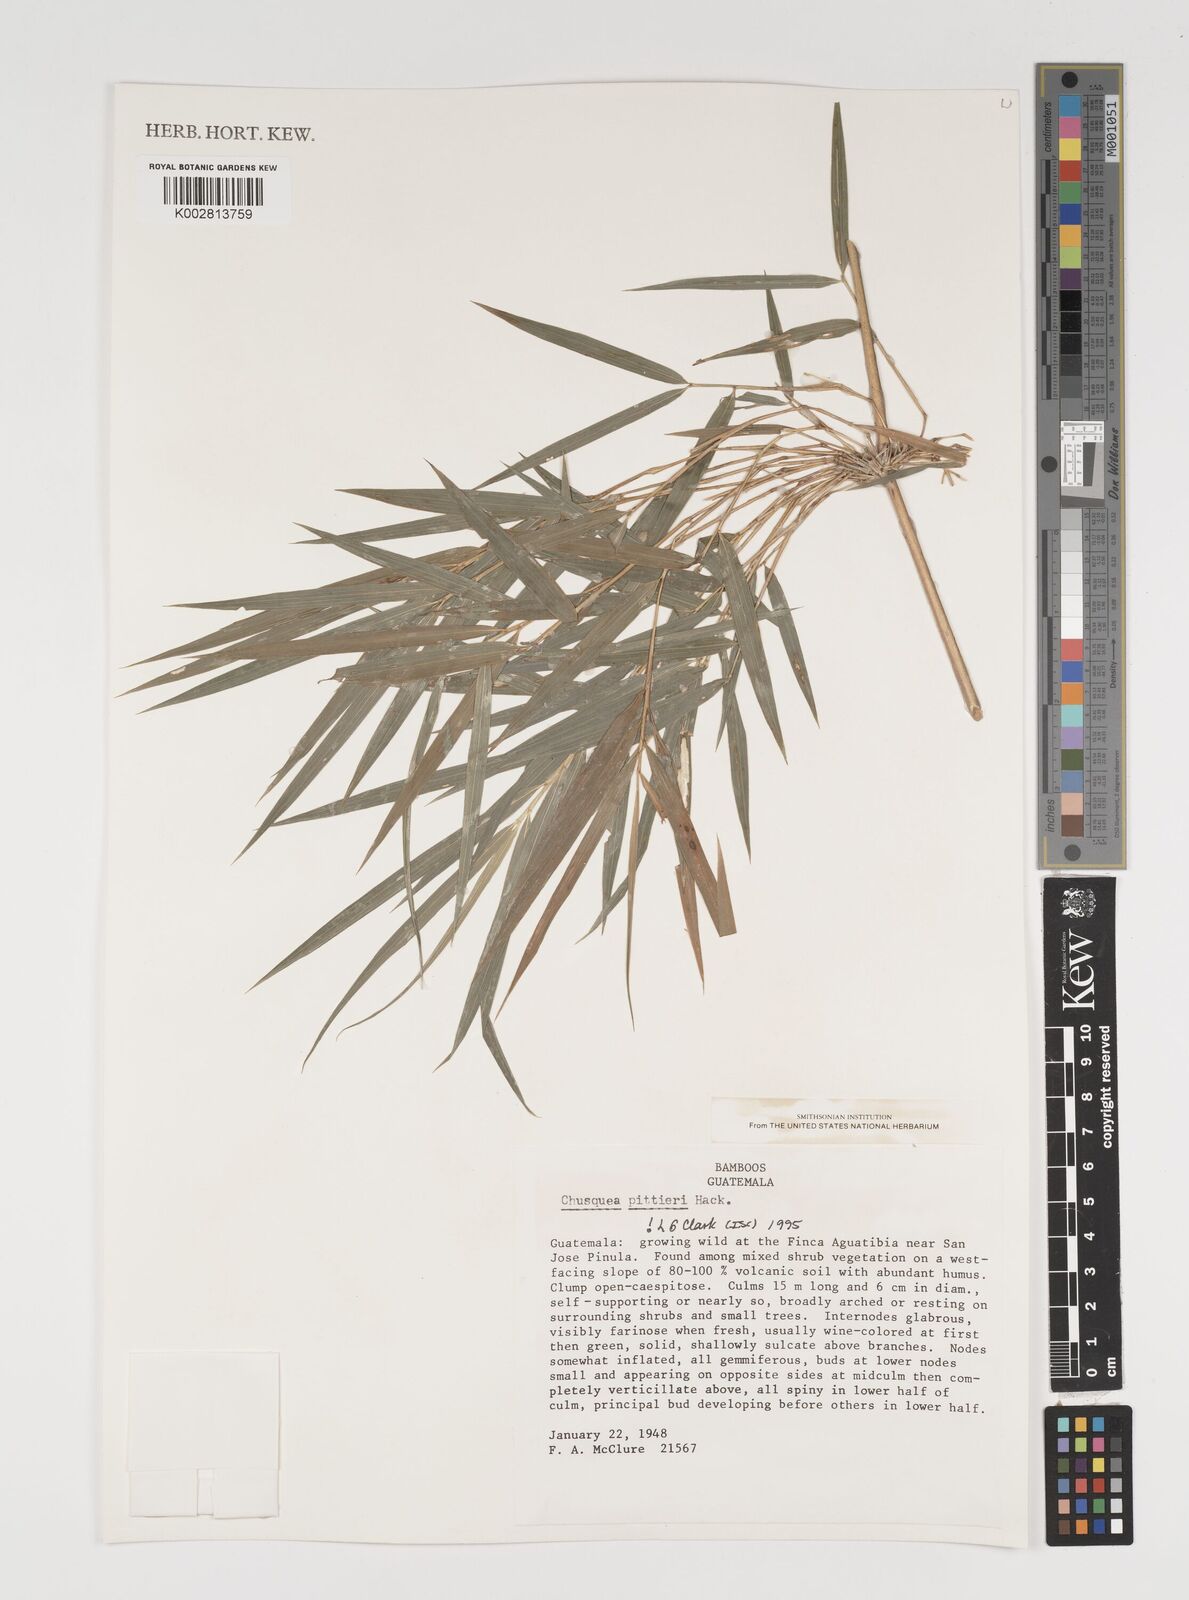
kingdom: Plantae
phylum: Tracheophyta
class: Liliopsida
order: Poales
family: Poaceae
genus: Chusquea
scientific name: Chusquea pittieri
